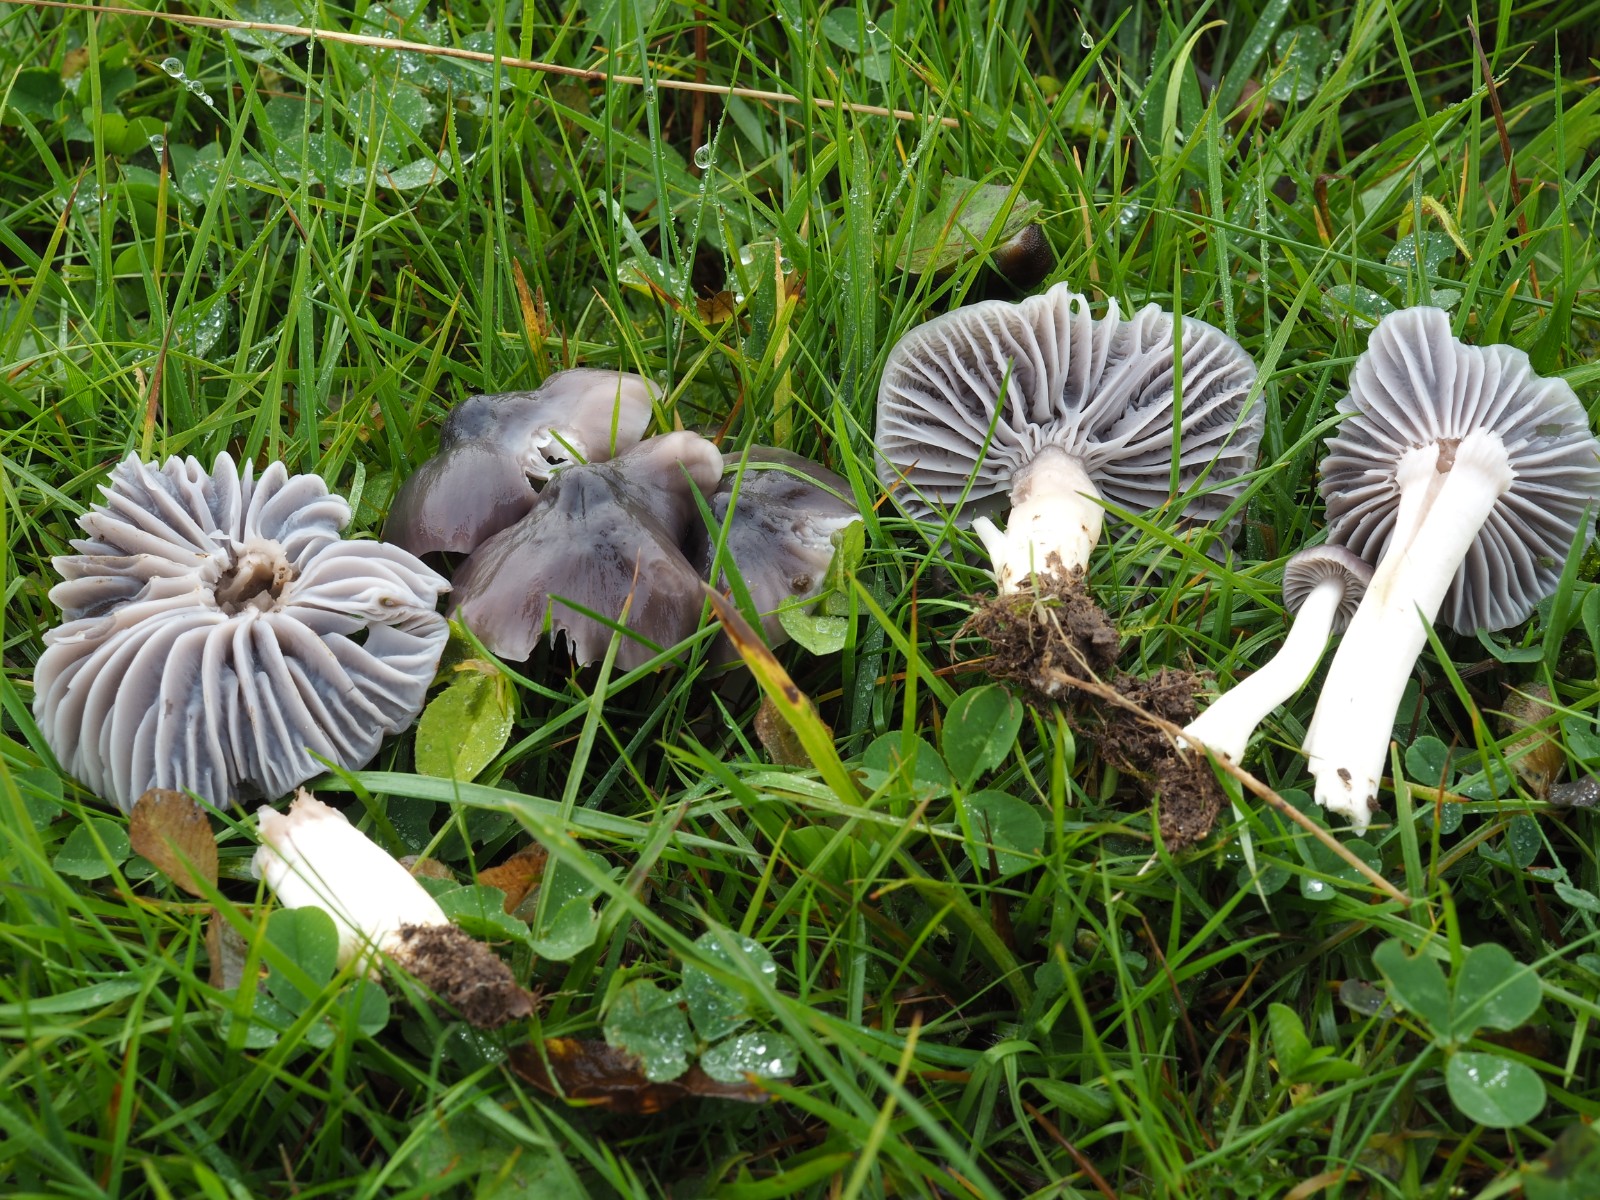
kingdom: Fungi
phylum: Basidiomycota
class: Agaricomycetes
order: Agaricales
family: Hygrophoraceae
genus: Cuphophyllus
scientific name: Cuphophyllus lacmus
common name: gråviolet vokshat
